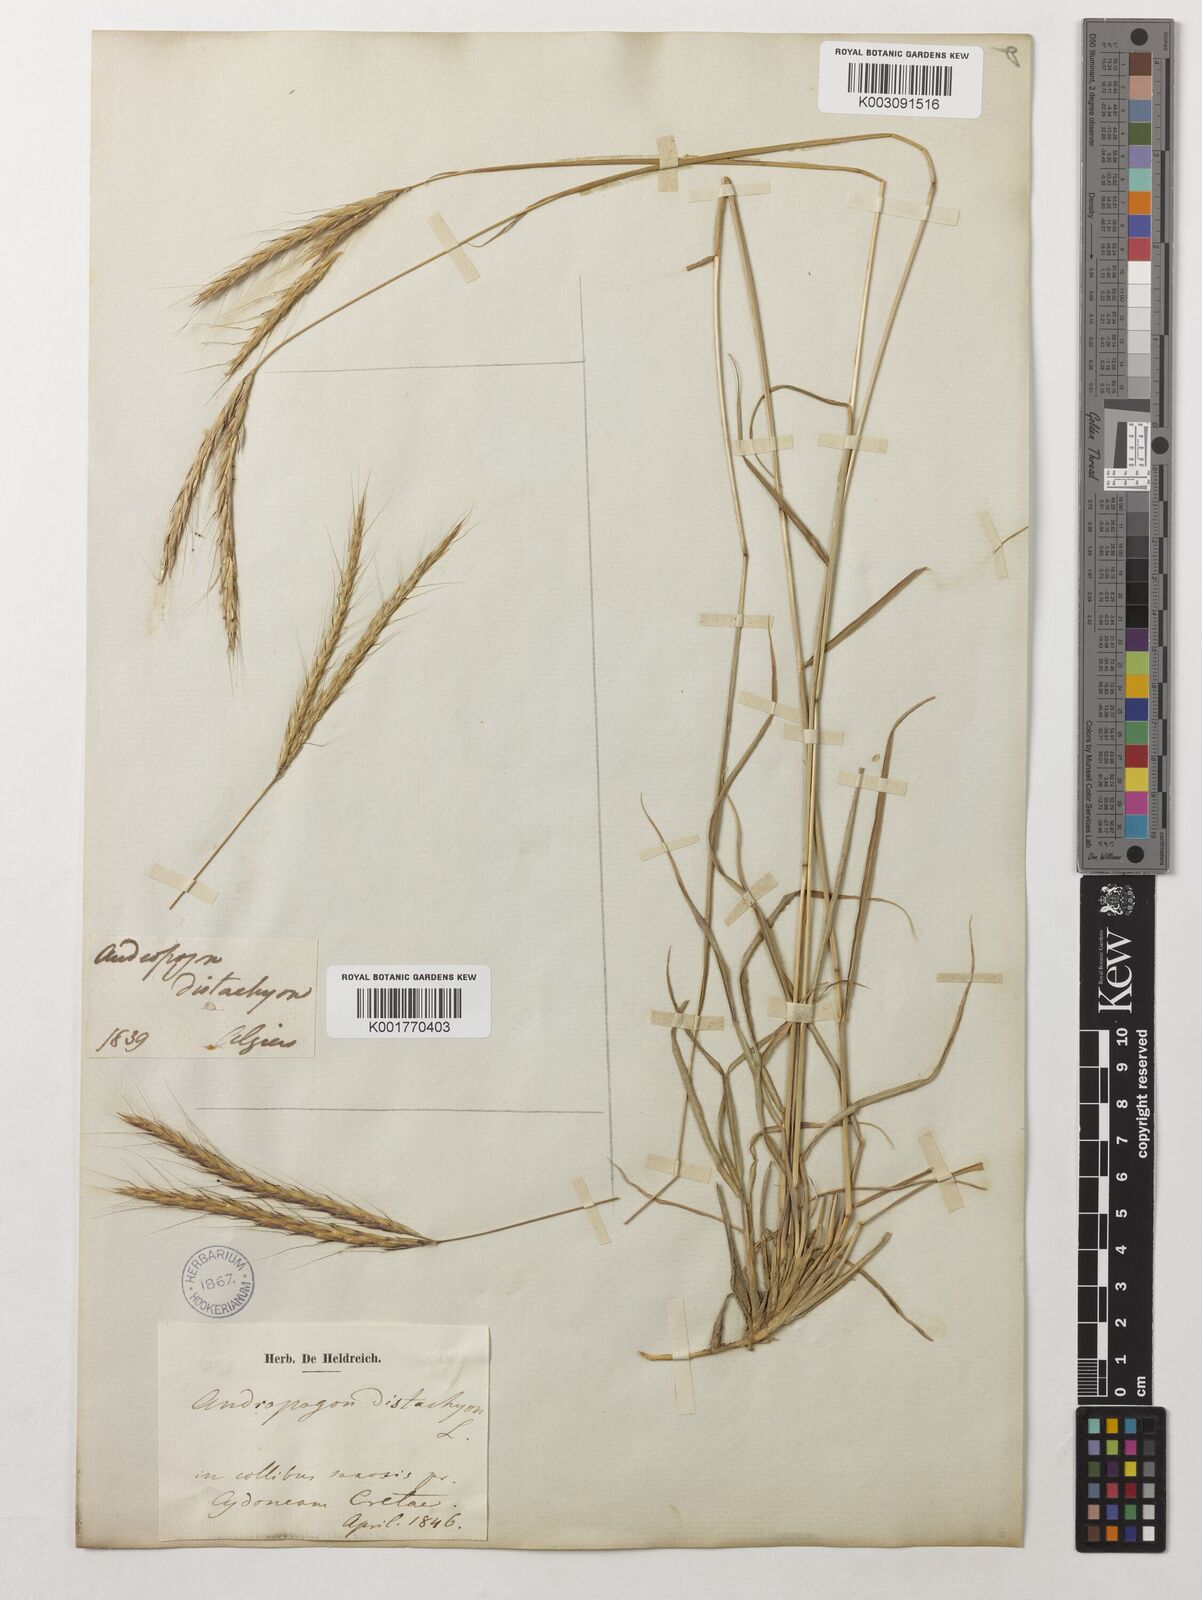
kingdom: Plantae
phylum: Tracheophyta
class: Liliopsida
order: Poales
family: Poaceae
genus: Andropogon
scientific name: Andropogon distachyos
